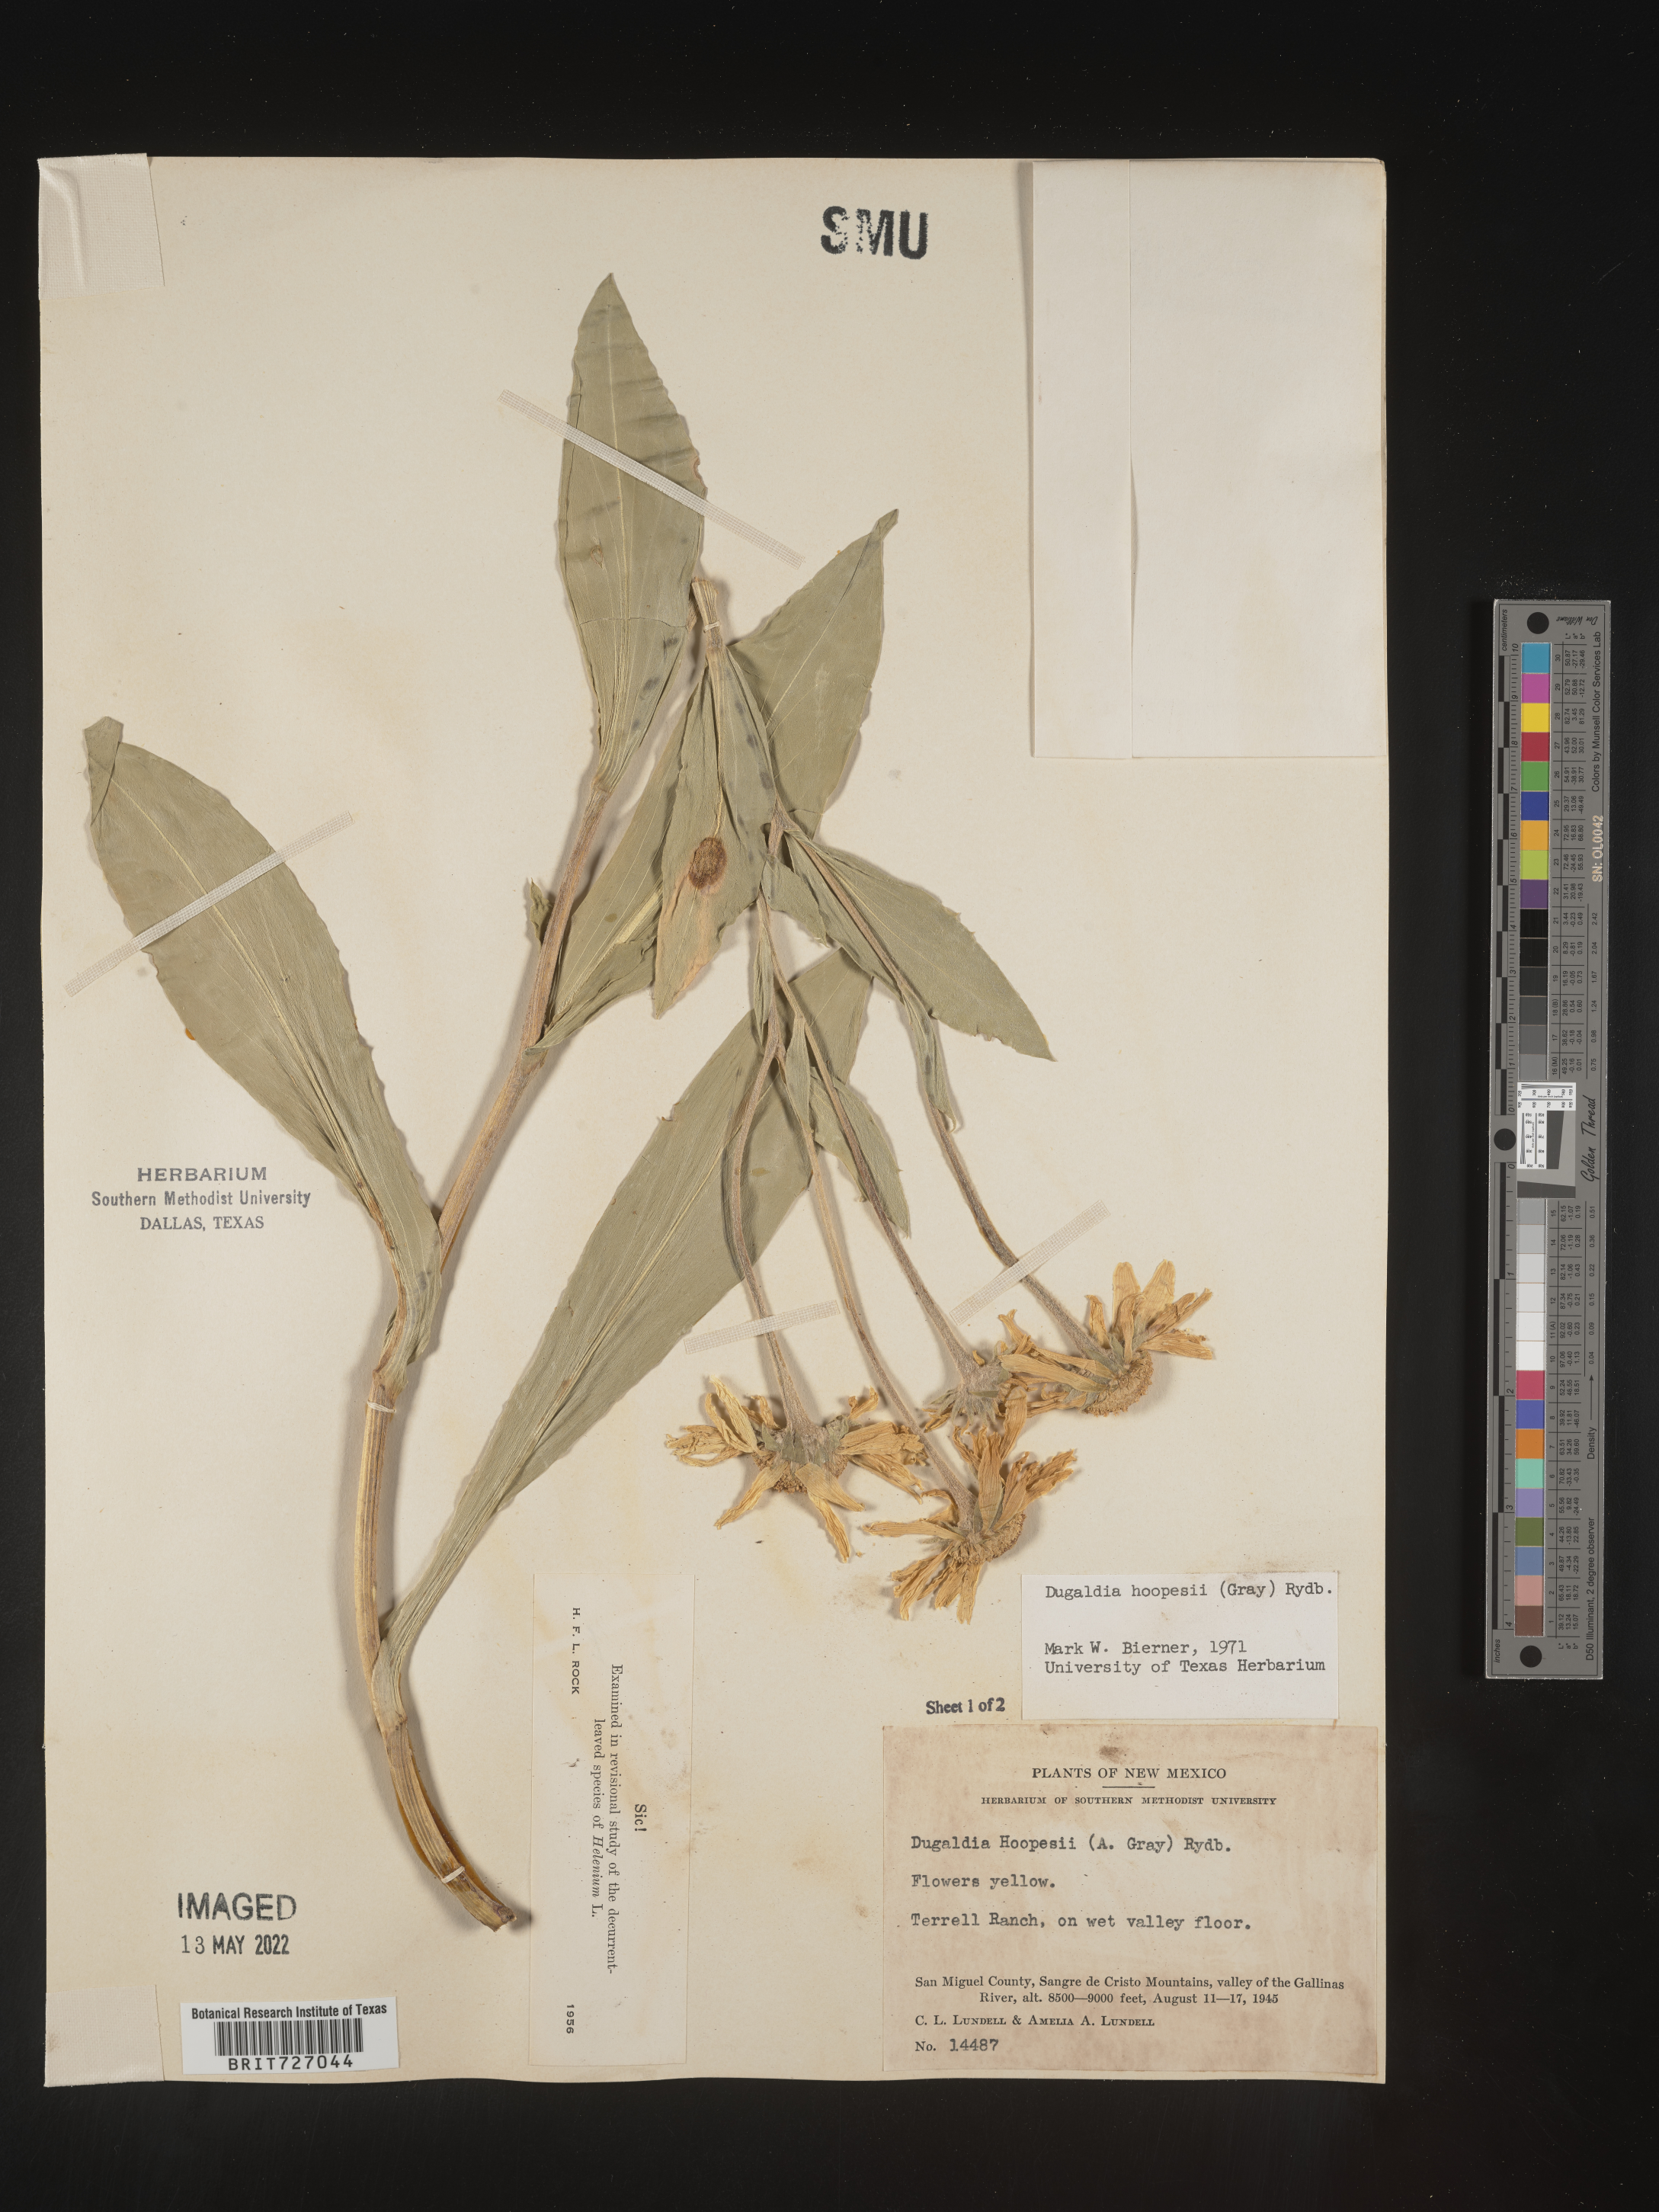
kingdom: Plantae
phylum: Tracheophyta
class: Magnoliopsida
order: Asterales
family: Asteraceae
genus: Hymenoxys
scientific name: Hymenoxys hoopesii
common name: Orange-sneezeweed
